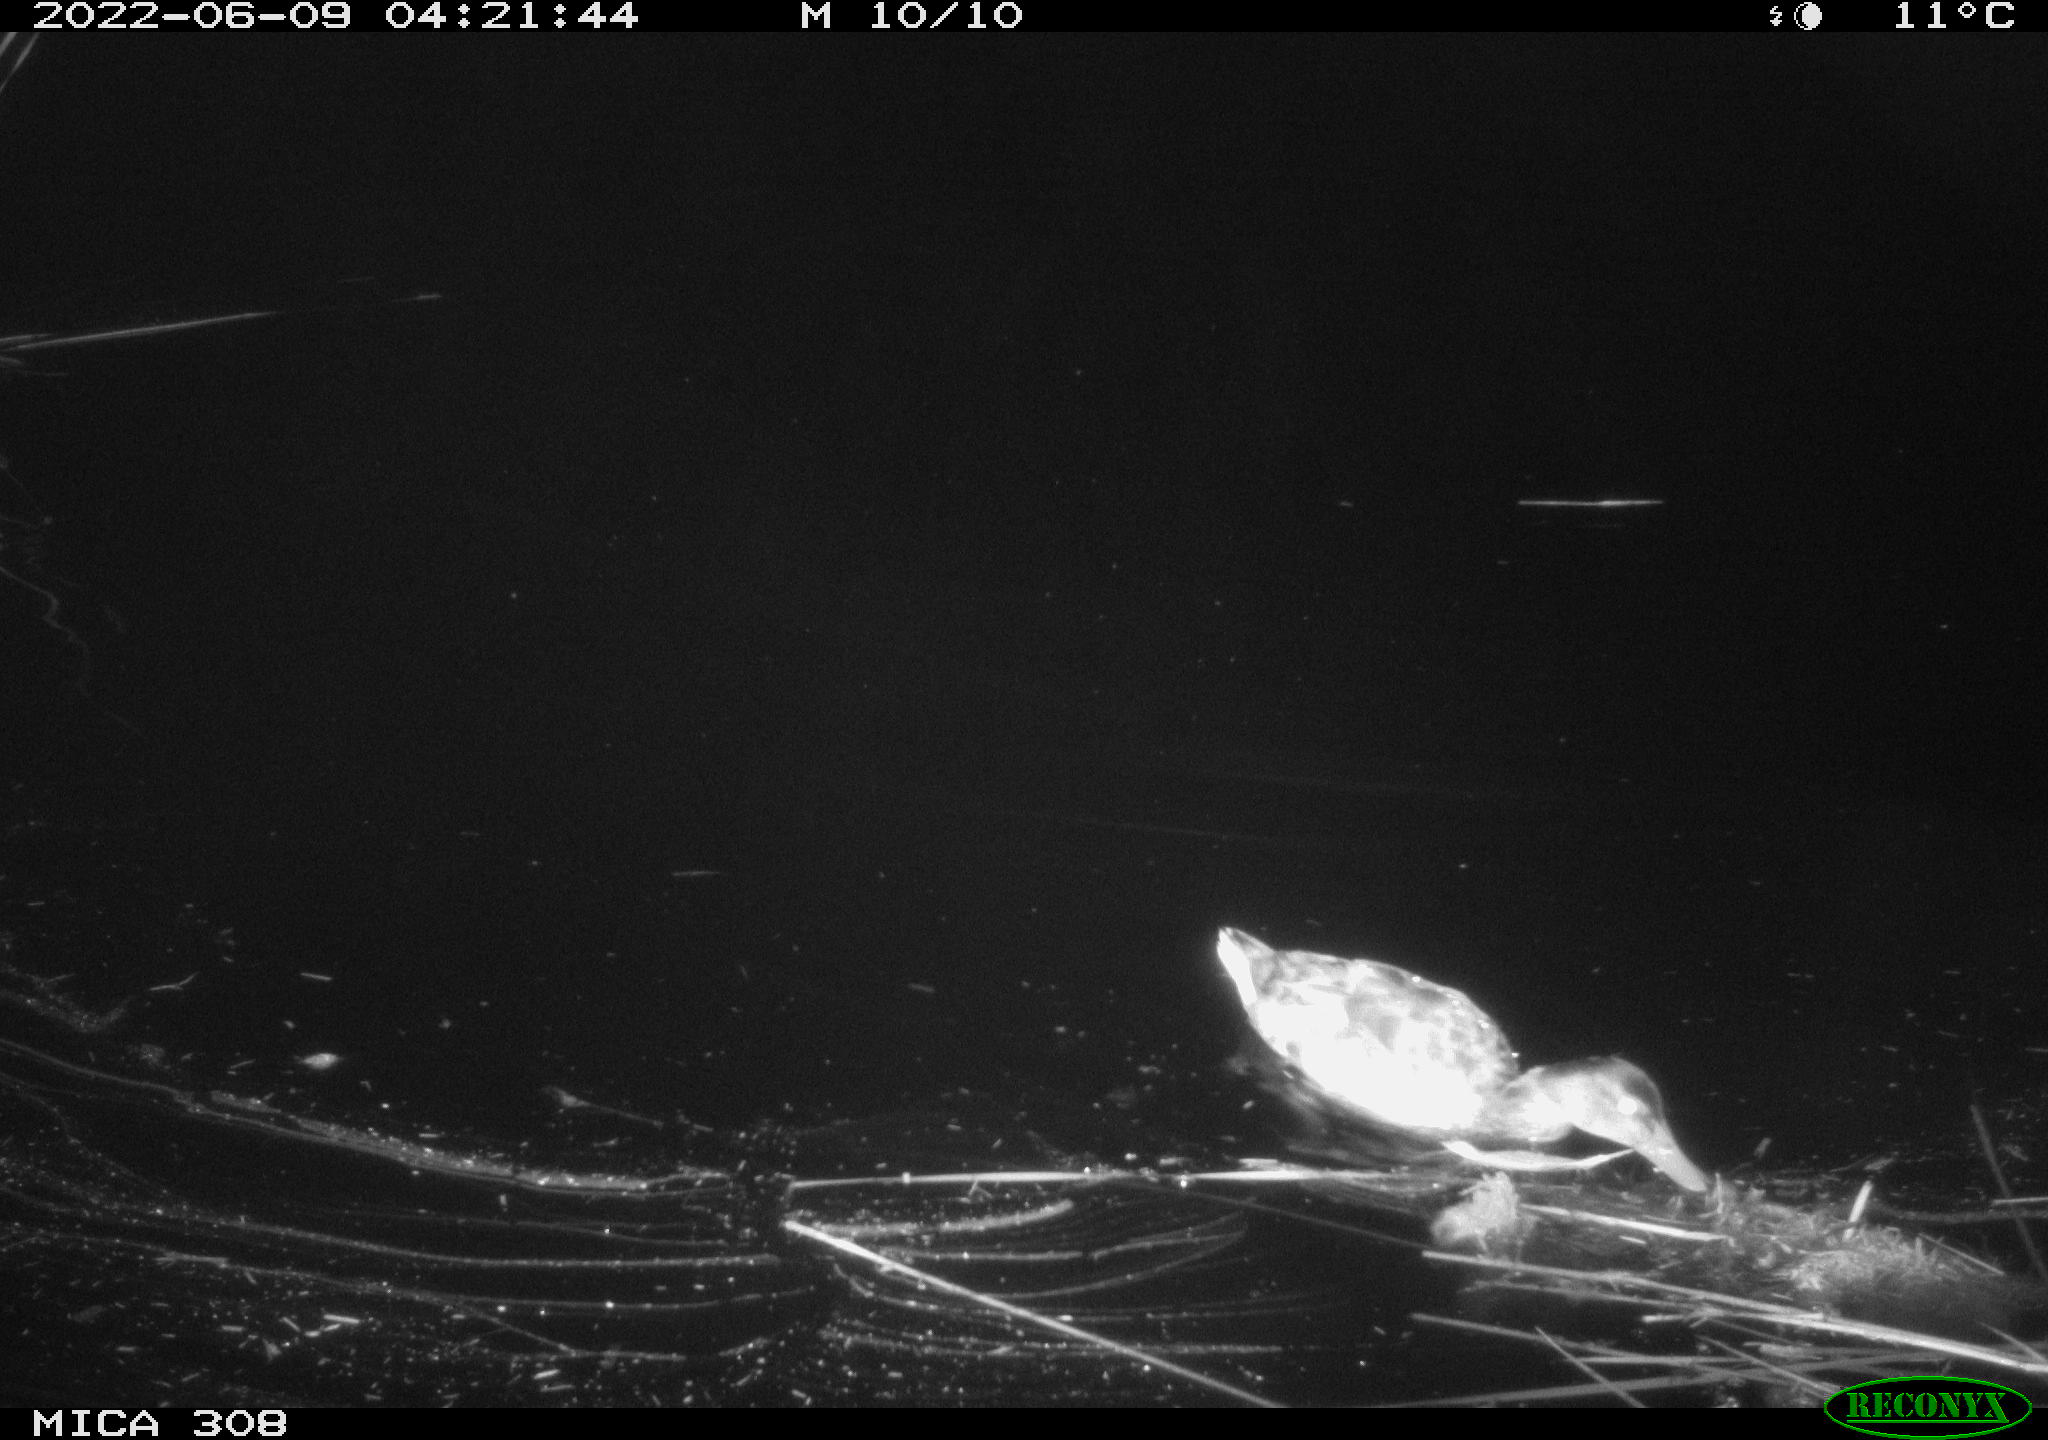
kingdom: Animalia
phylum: Chordata
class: Aves
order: Anseriformes
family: Anatidae
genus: Anas
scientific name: Anas platyrhynchos
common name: Mallard
